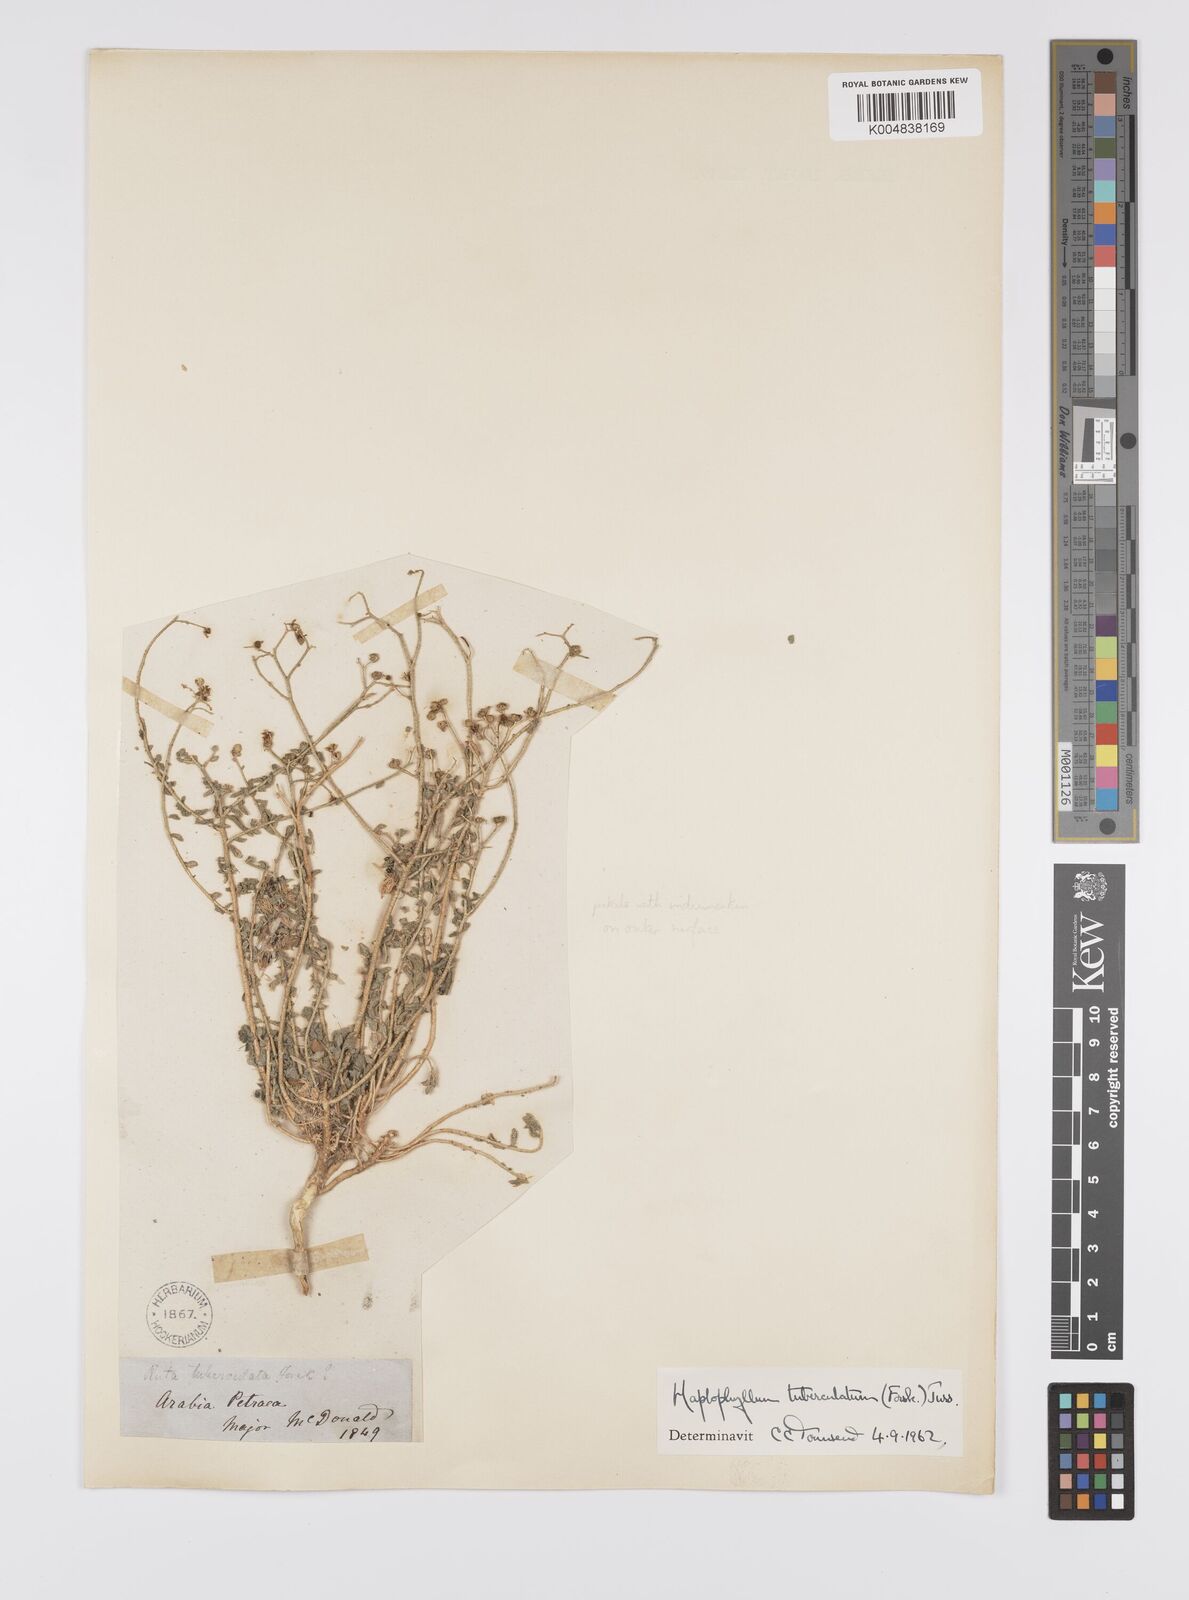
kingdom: Plantae
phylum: Tracheophyta
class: Magnoliopsida
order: Sapindales
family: Rutaceae
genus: Haplophyllum
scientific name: Haplophyllum tuberculatum
